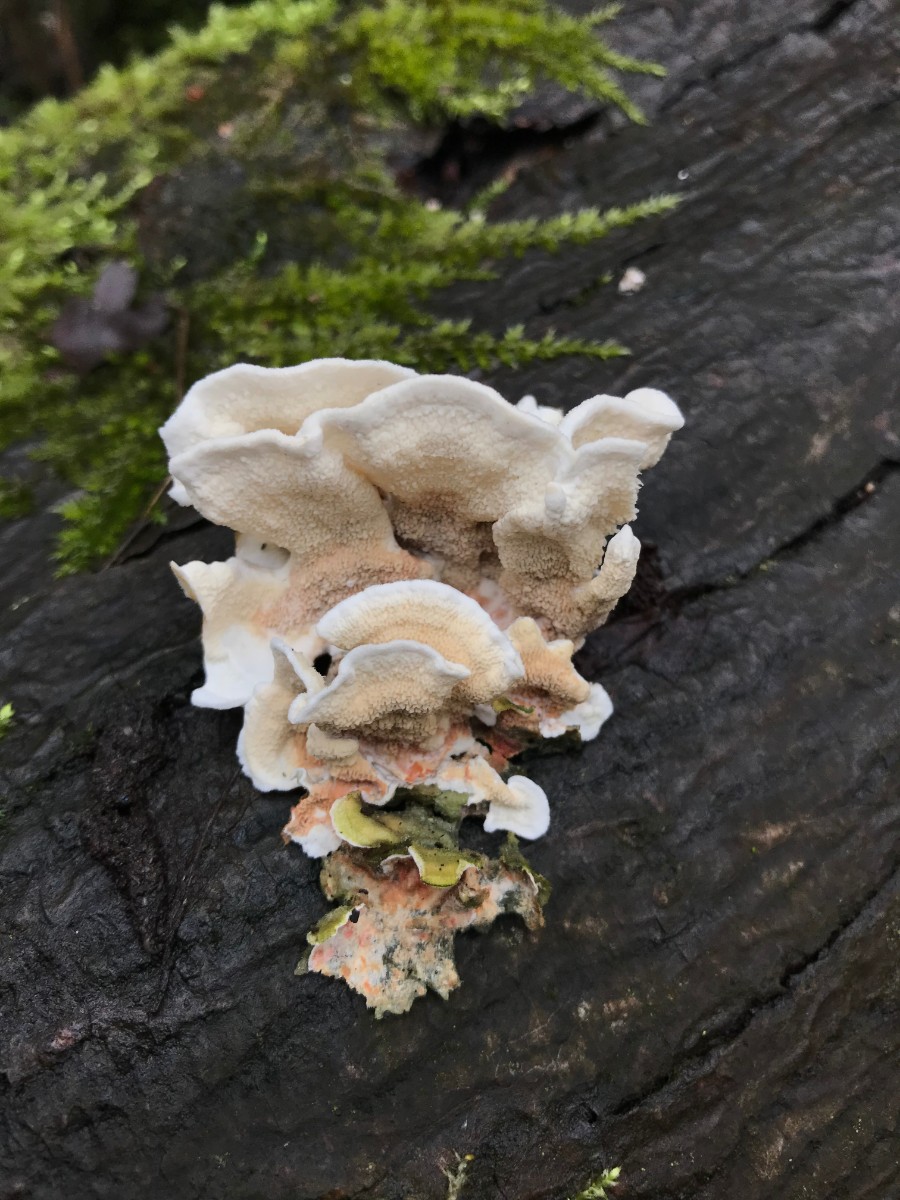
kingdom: Fungi
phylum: Basidiomycota
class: Agaricomycetes
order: Polyporales
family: Irpicaceae
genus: Byssomerulius
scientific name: Byssomerulius corium
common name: læder-åresvamp
